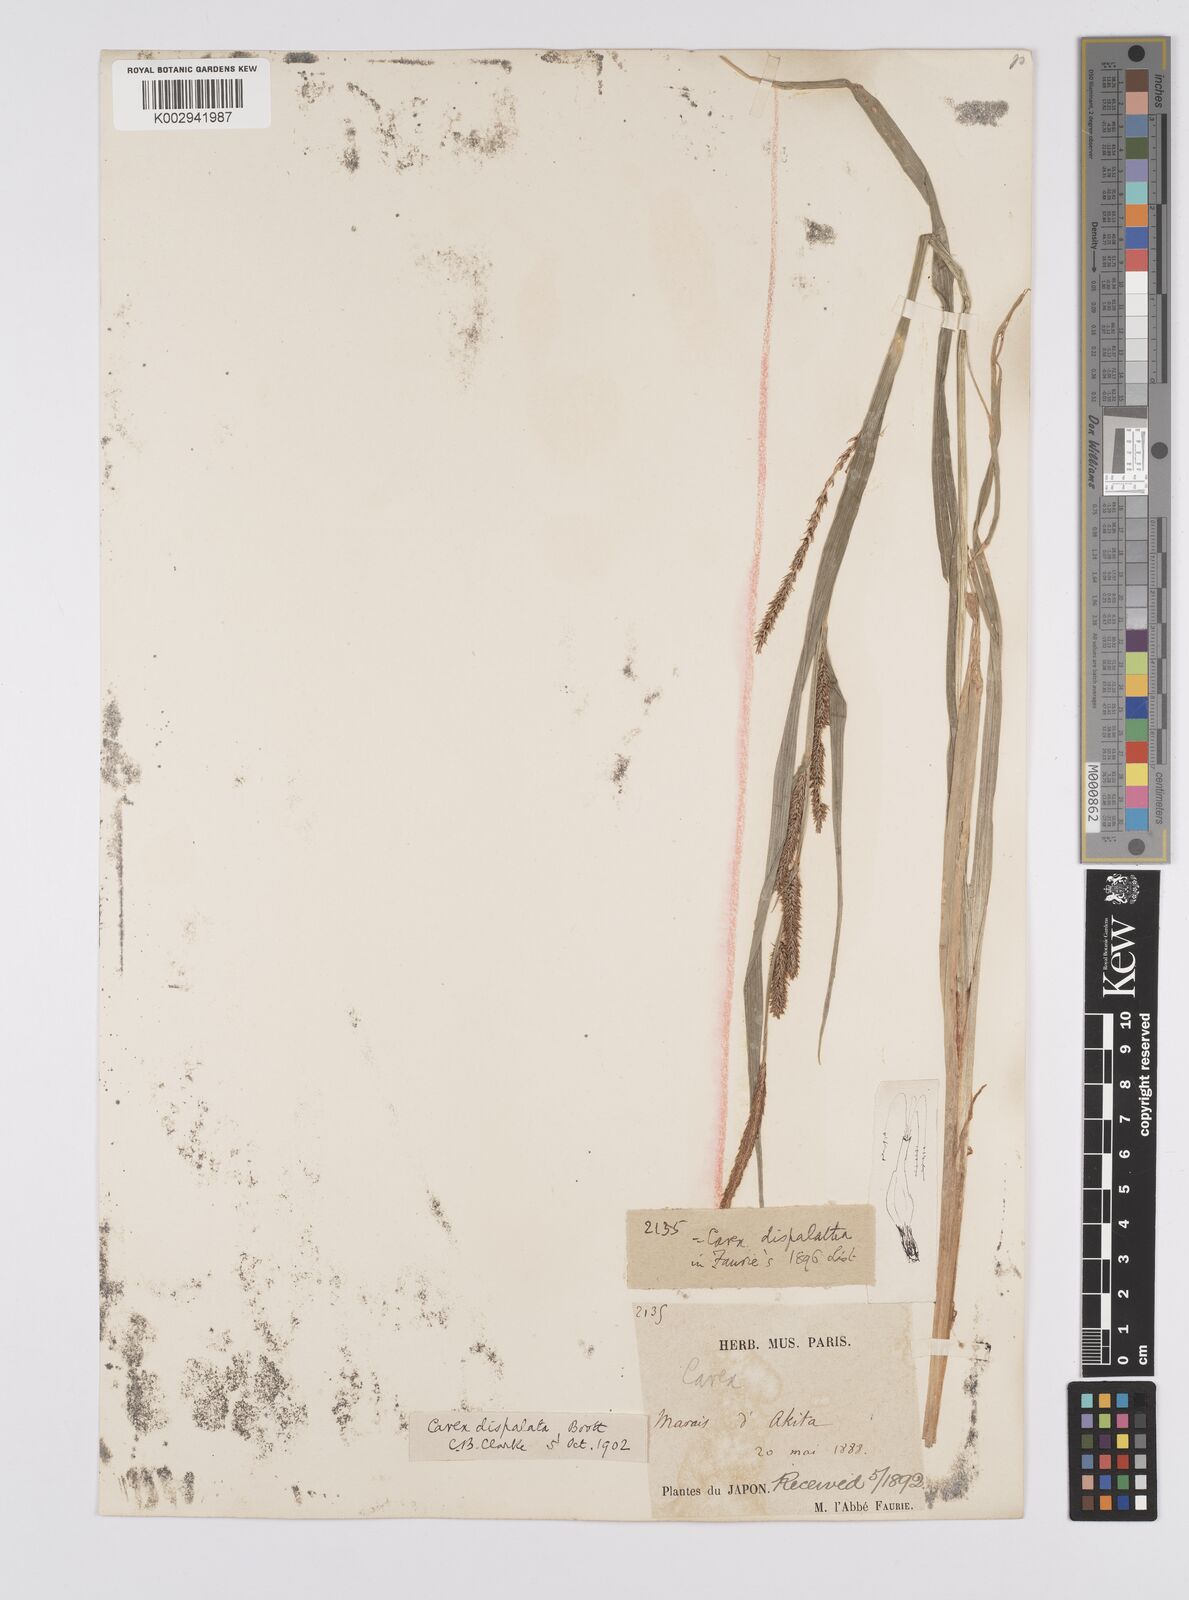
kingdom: Plantae
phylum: Tracheophyta
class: Liliopsida
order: Poales
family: Cyperaceae
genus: Carex
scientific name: Carex dispalata
